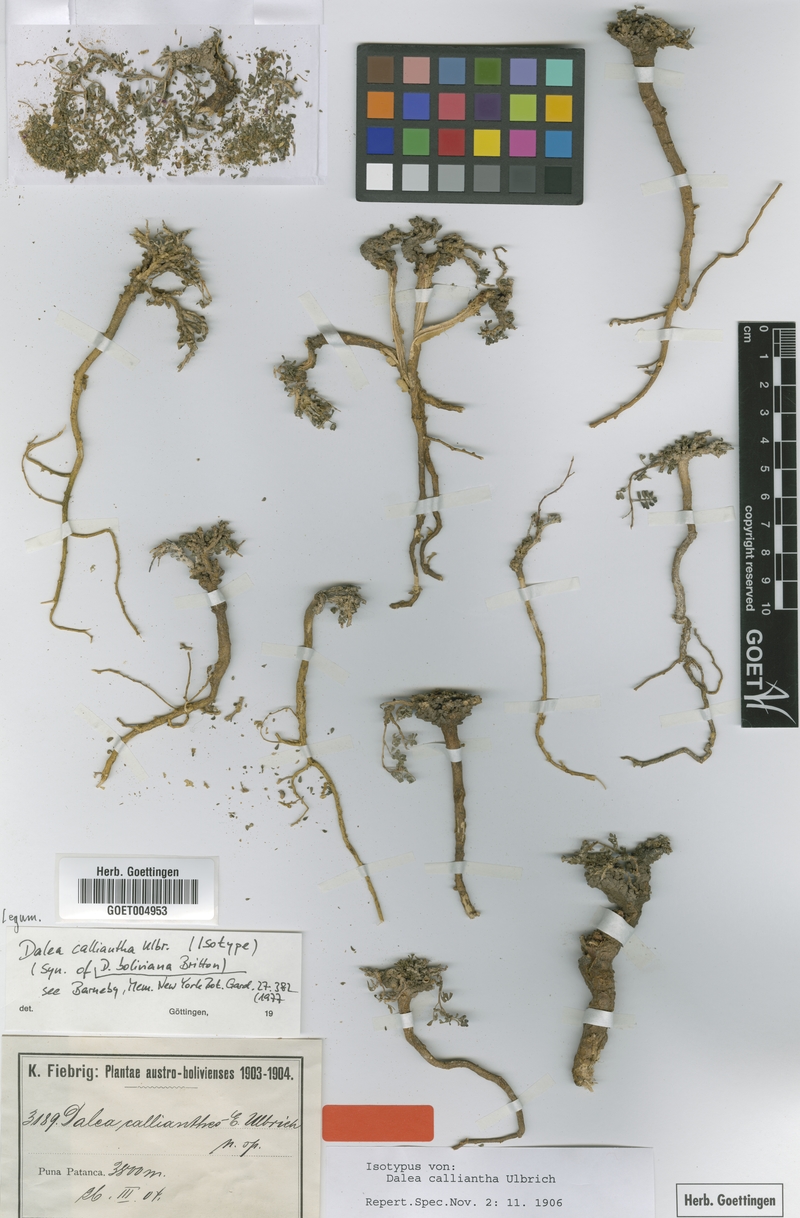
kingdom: Plantae
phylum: Tracheophyta
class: Magnoliopsida
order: Fabales
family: Fabaceae
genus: Dalea
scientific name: Dalea boliviana
